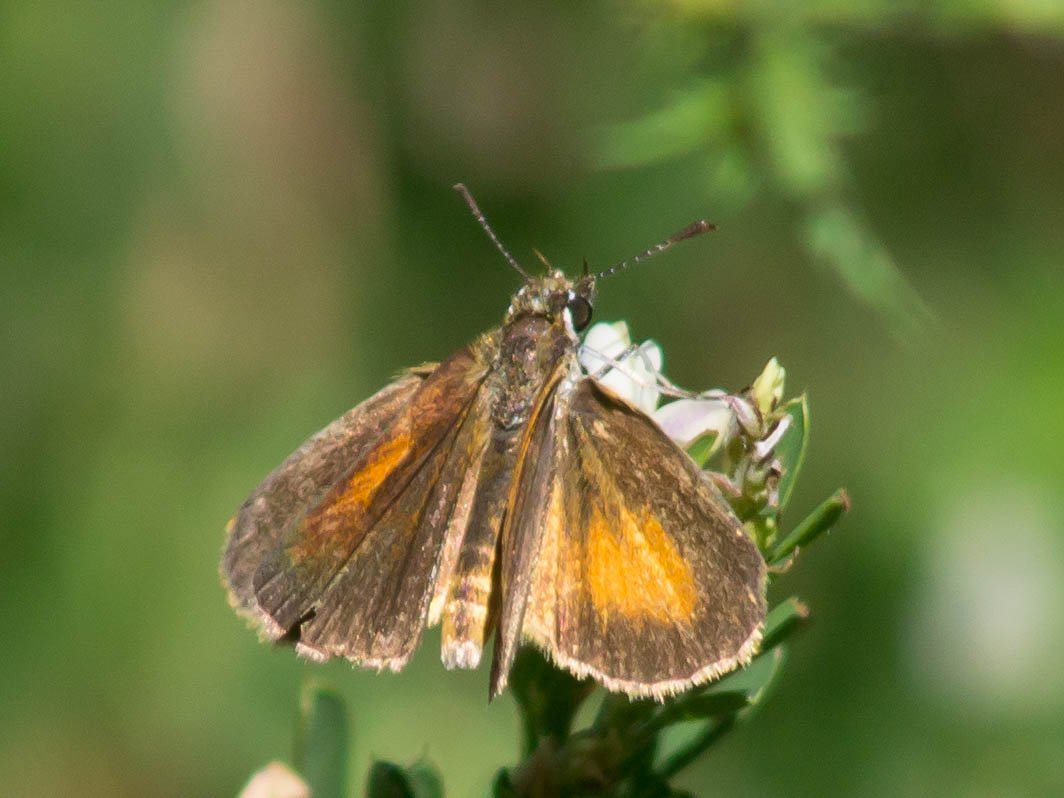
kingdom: Animalia
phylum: Arthropoda
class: Insecta
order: Lepidoptera
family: Hesperiidae
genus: Ancyloxypha
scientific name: Ancyloxypha numitor
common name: Least Skipper
